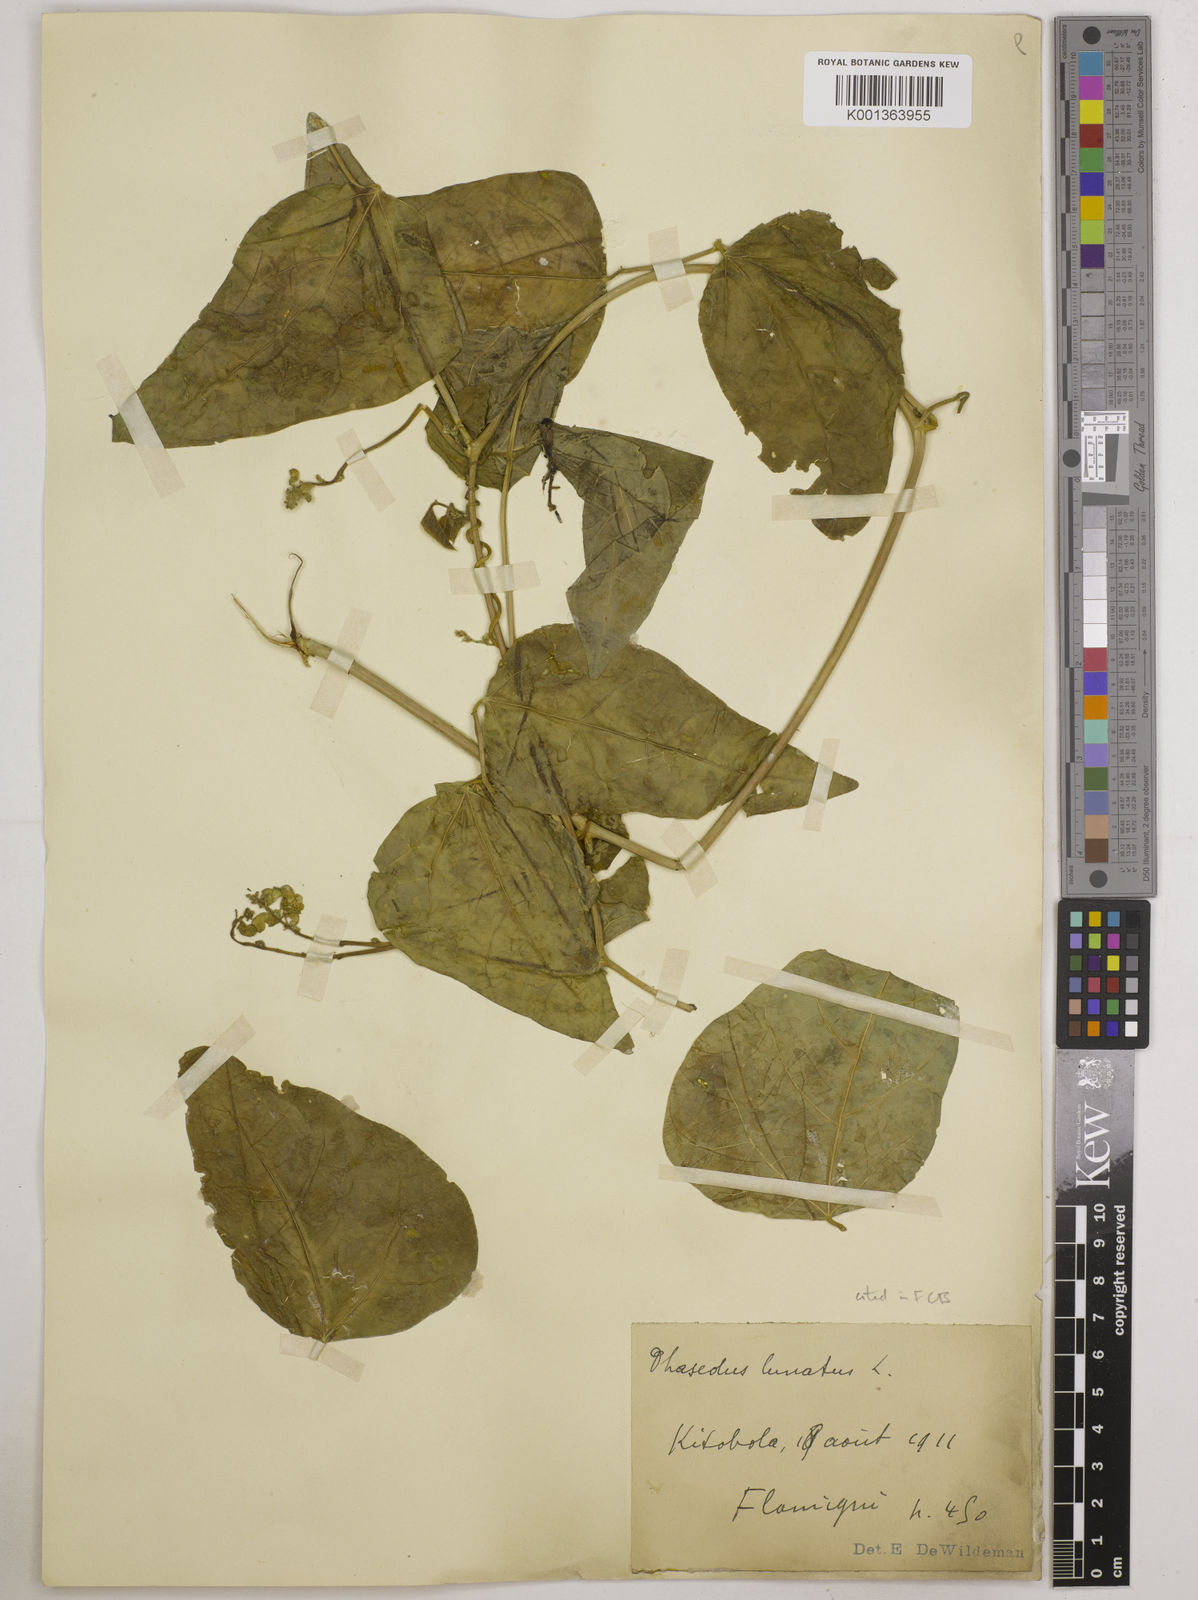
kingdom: Plantae
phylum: Tracheophyta
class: Magnoliopsida
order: Fabales
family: Fabaceae
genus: Phaseolus
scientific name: Phaseolus lunatus
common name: Sieva bean
